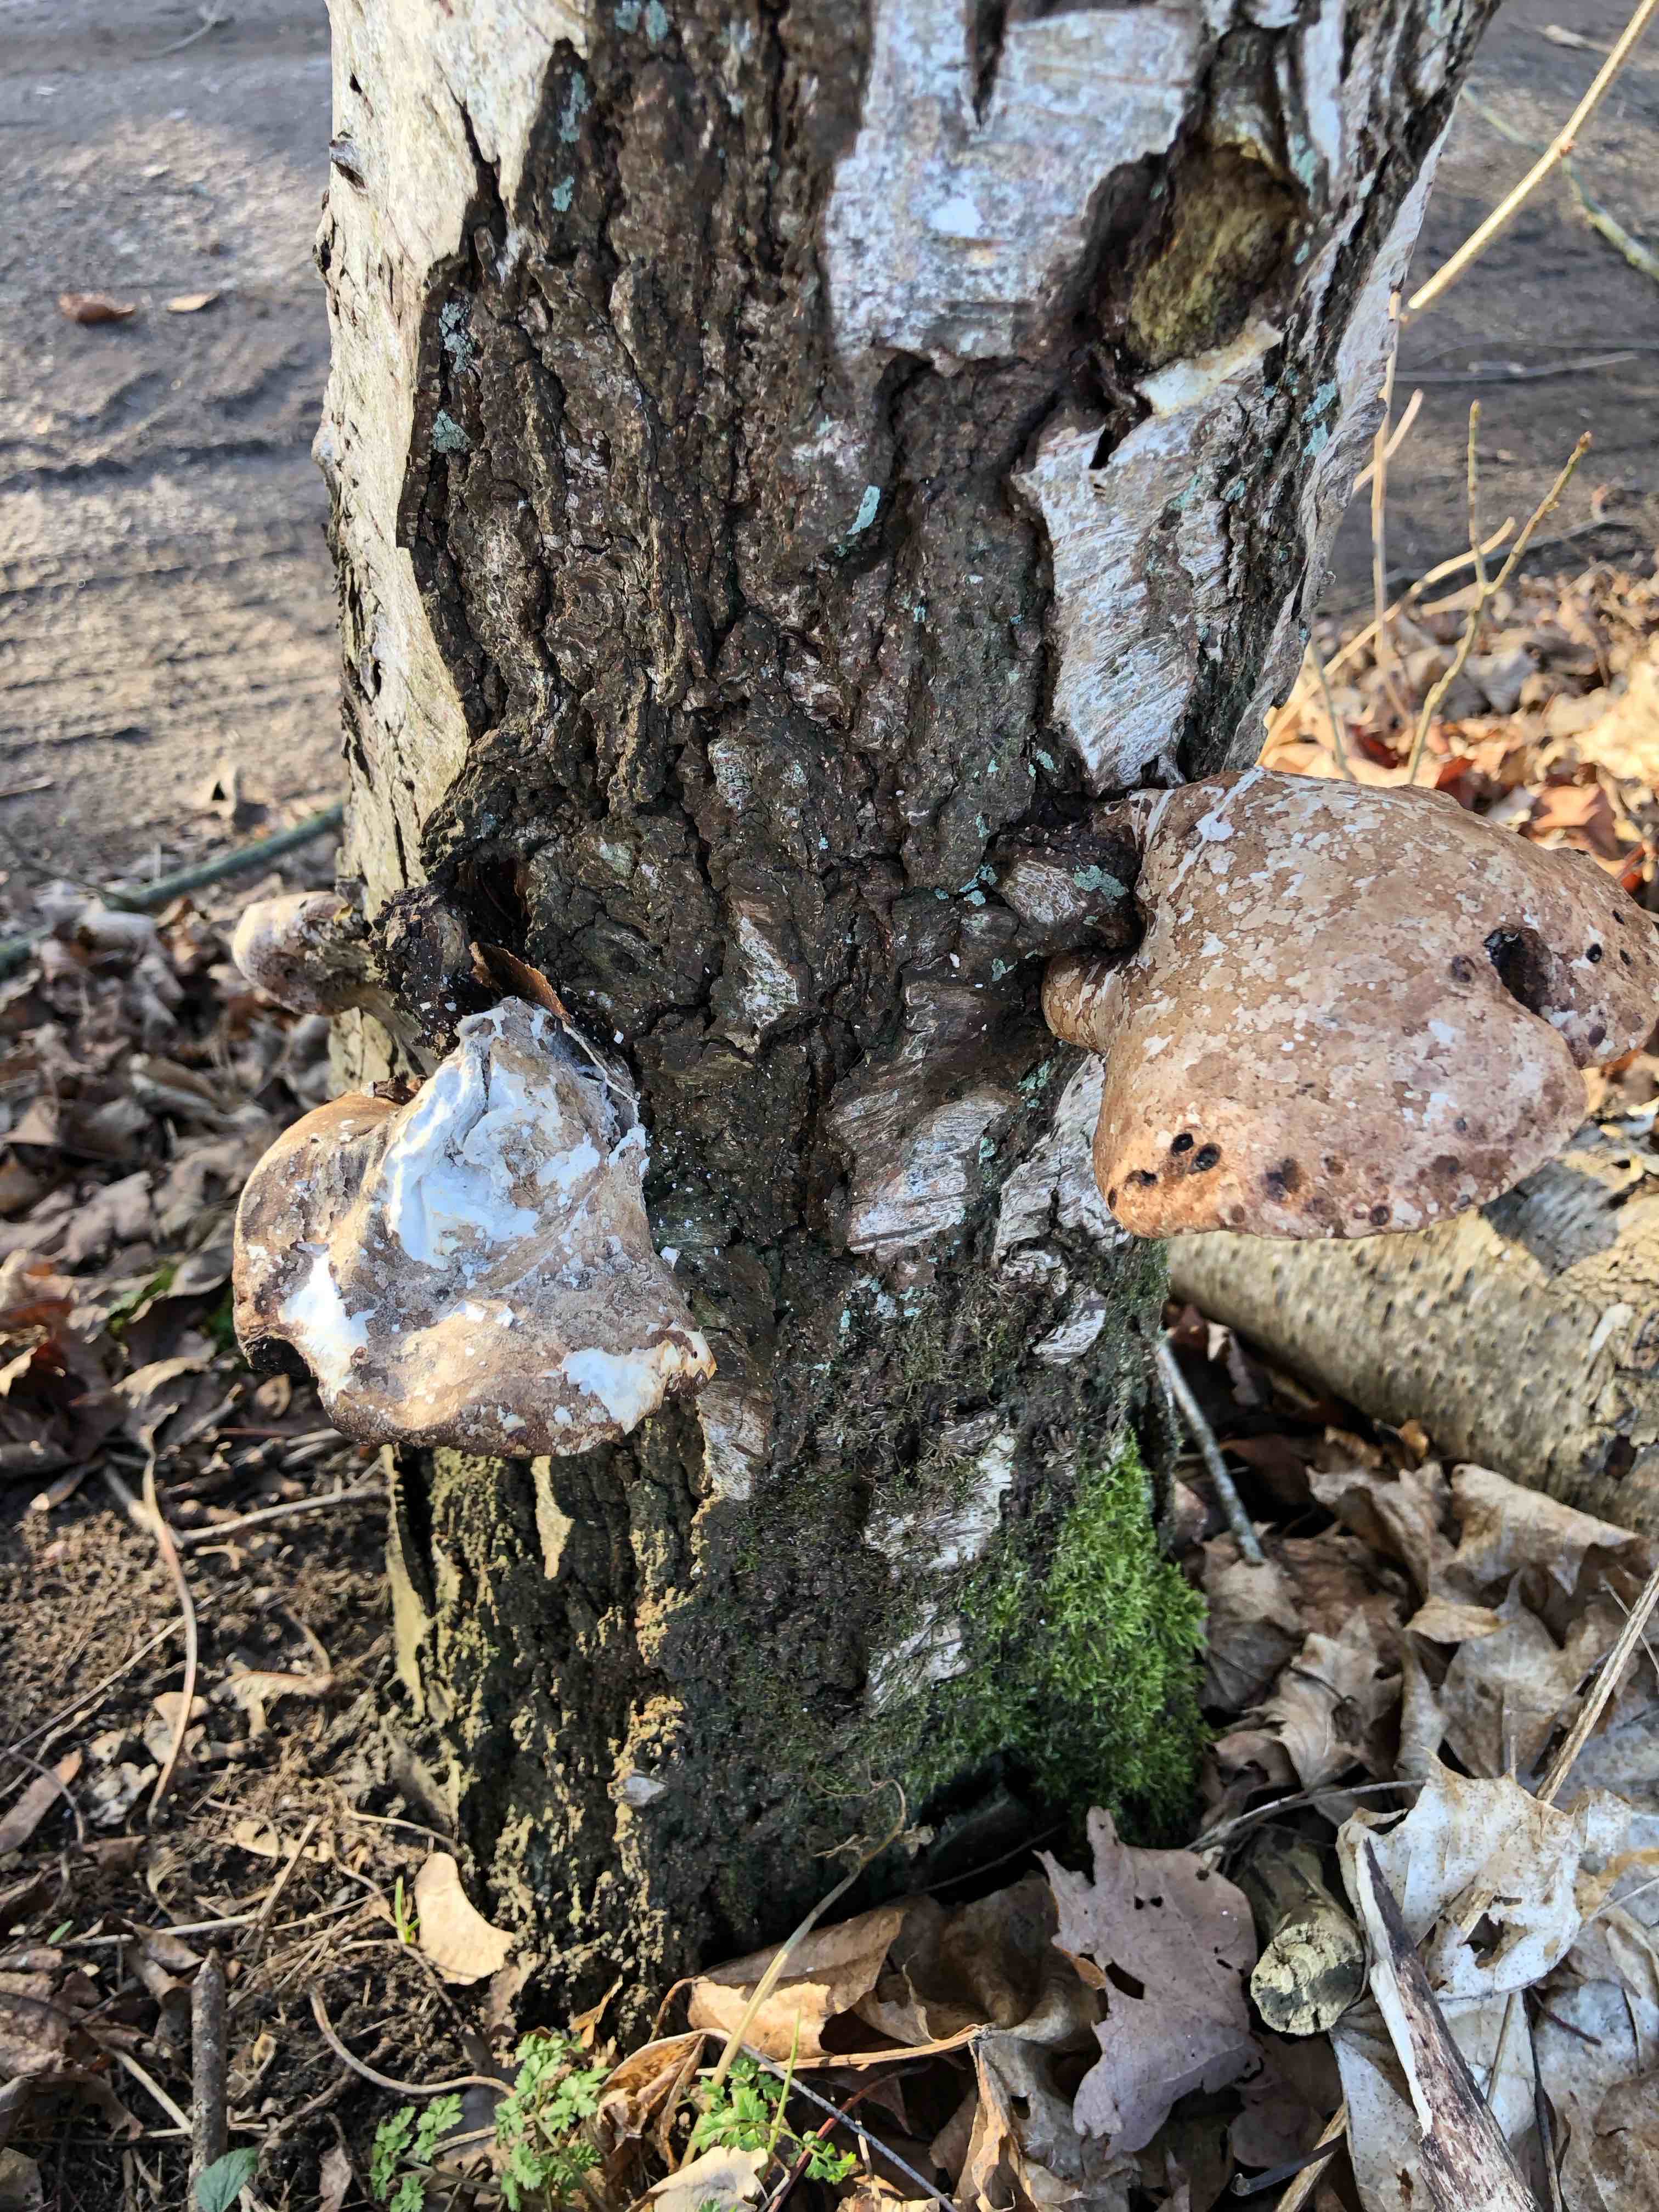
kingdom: Fungi
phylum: Basidiomycota
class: Agaricomycetes
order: Polyporales
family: Fomitopsidaceae
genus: Fomitopsis
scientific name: Fomitopsis betulina
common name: birkeporesvamp
